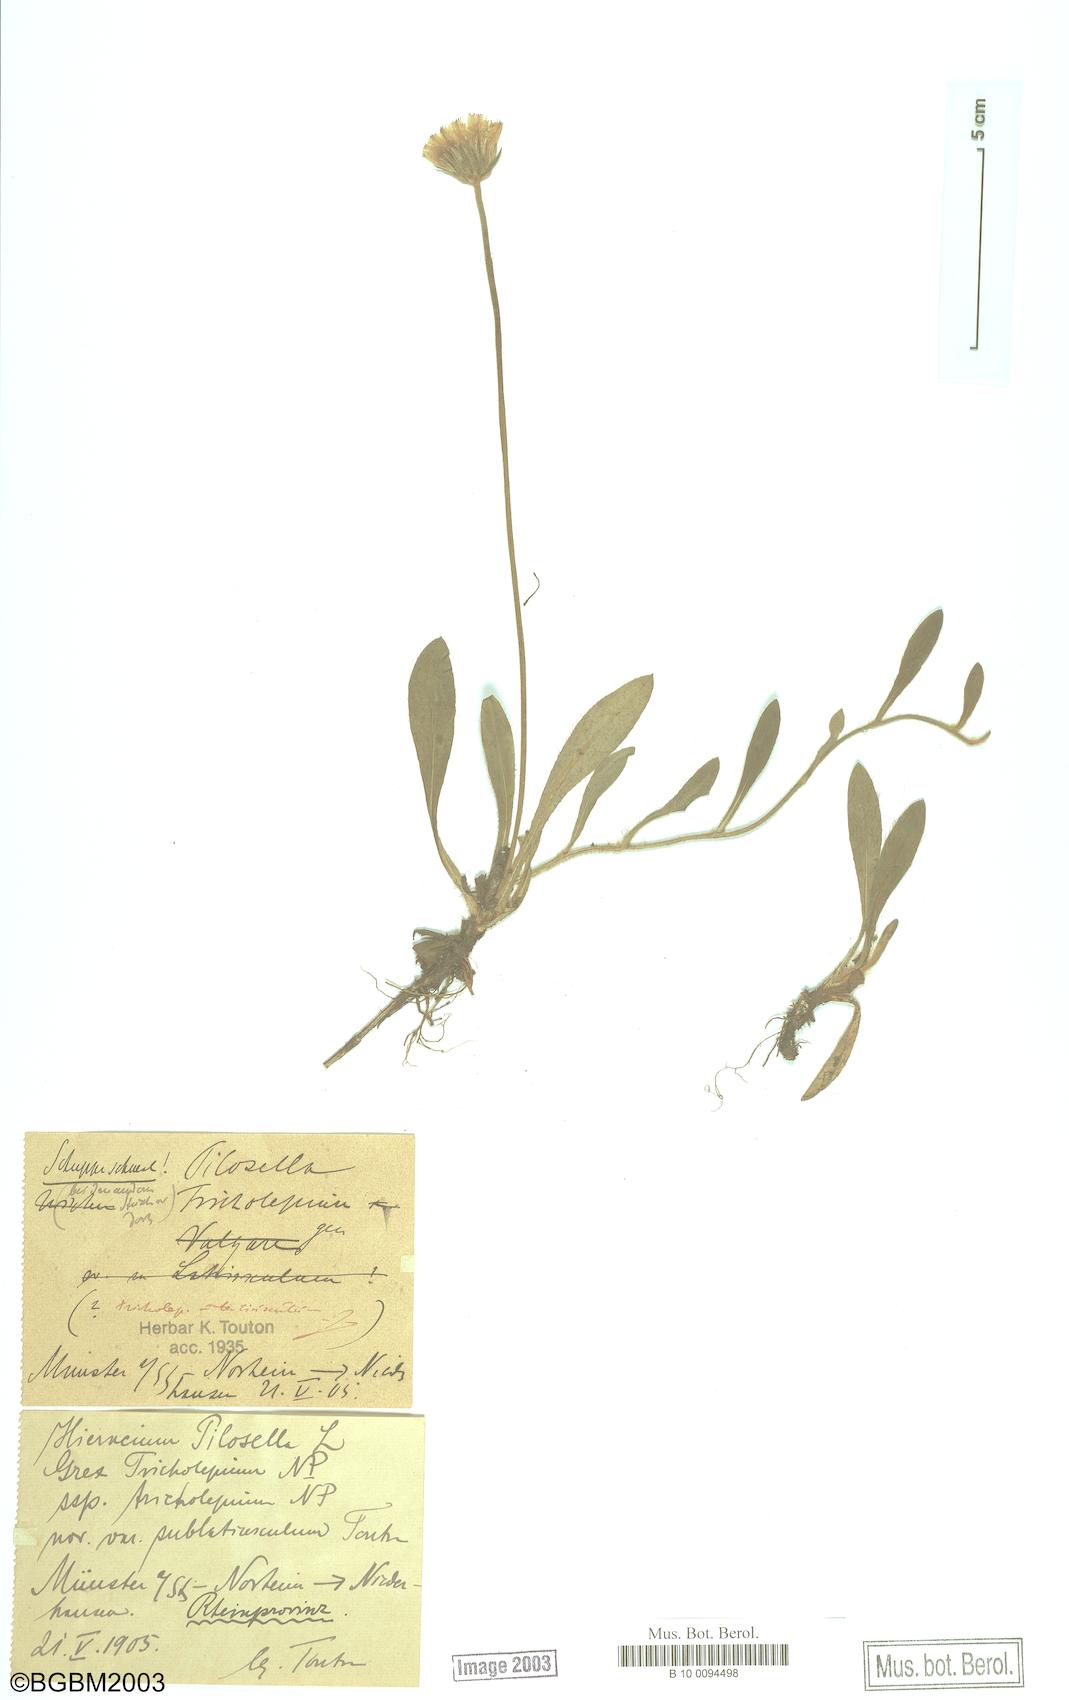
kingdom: Plantae
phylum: Tracheophyta
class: Magnoliopsida
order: Asterales
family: Asteraceae
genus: Pilosella
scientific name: Pilosella officinarum
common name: Mouse-ear hawkweed
